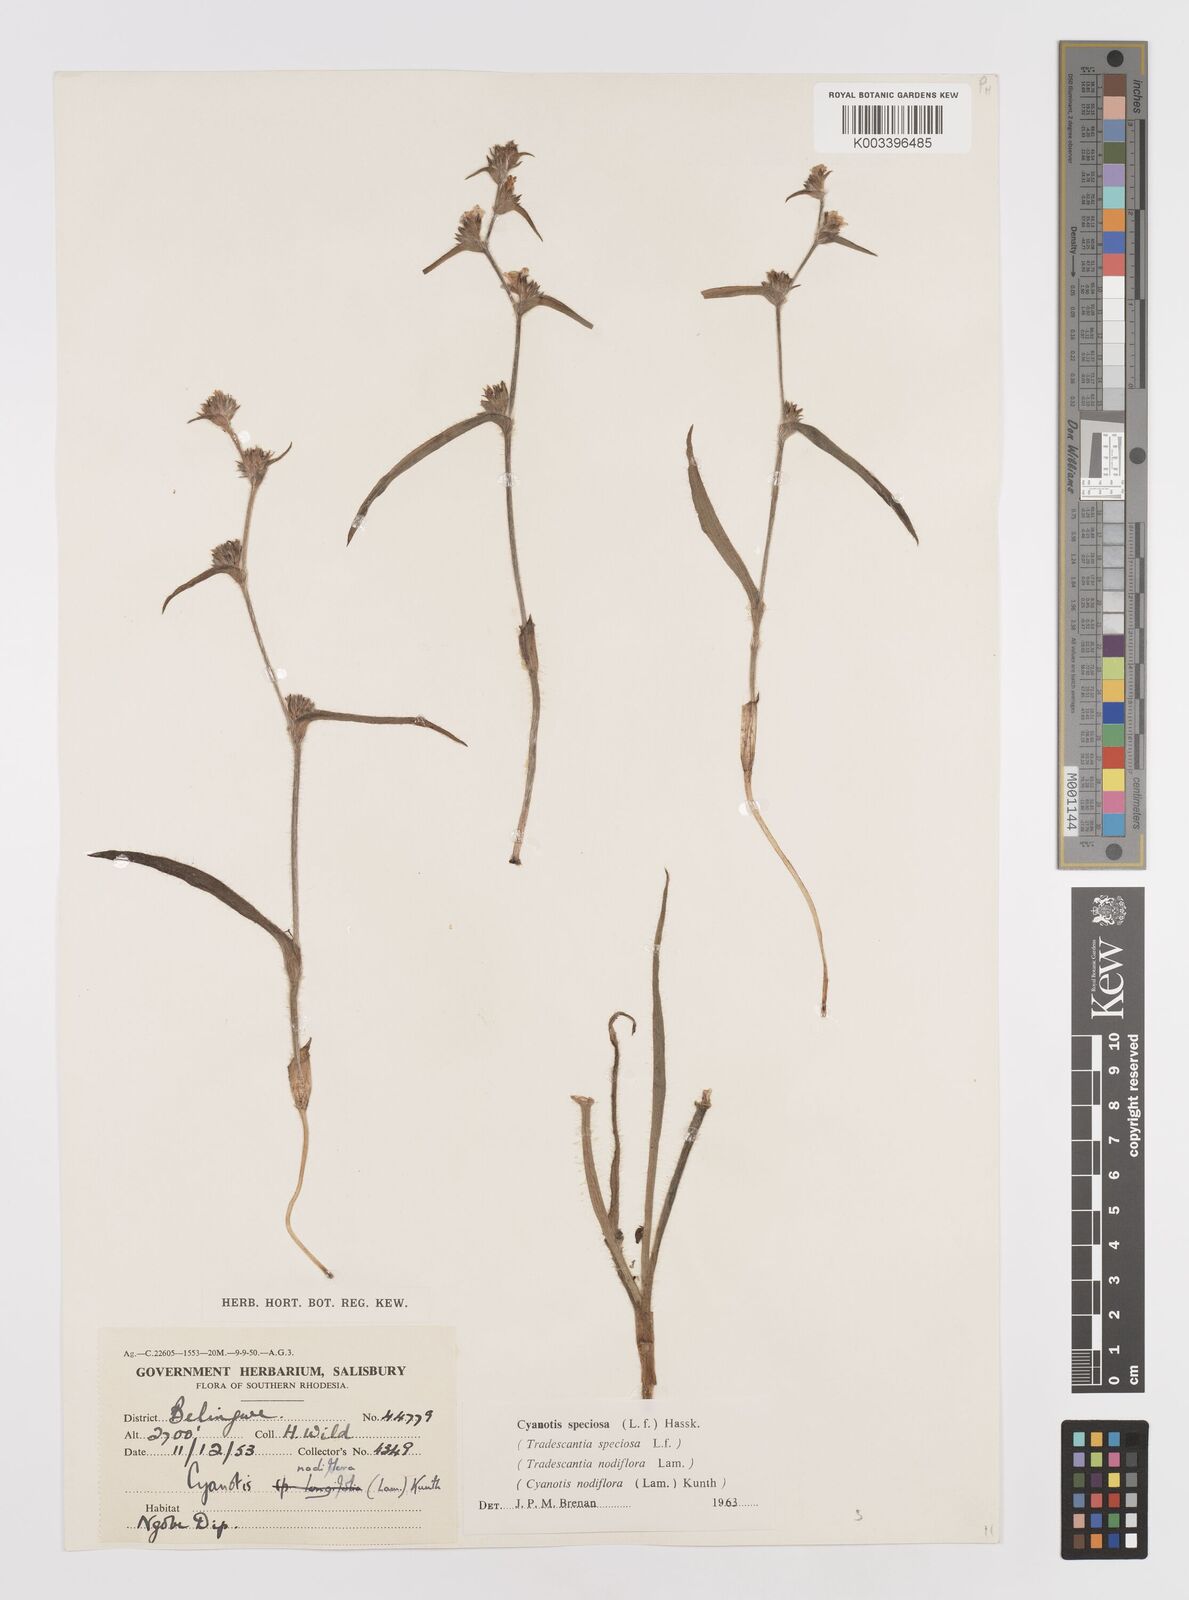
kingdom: Plantae
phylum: Tracheophyta
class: Liliopsida
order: Commelinales
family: Commelinaceae
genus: Cyanotis
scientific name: Cyanotis speciosa
